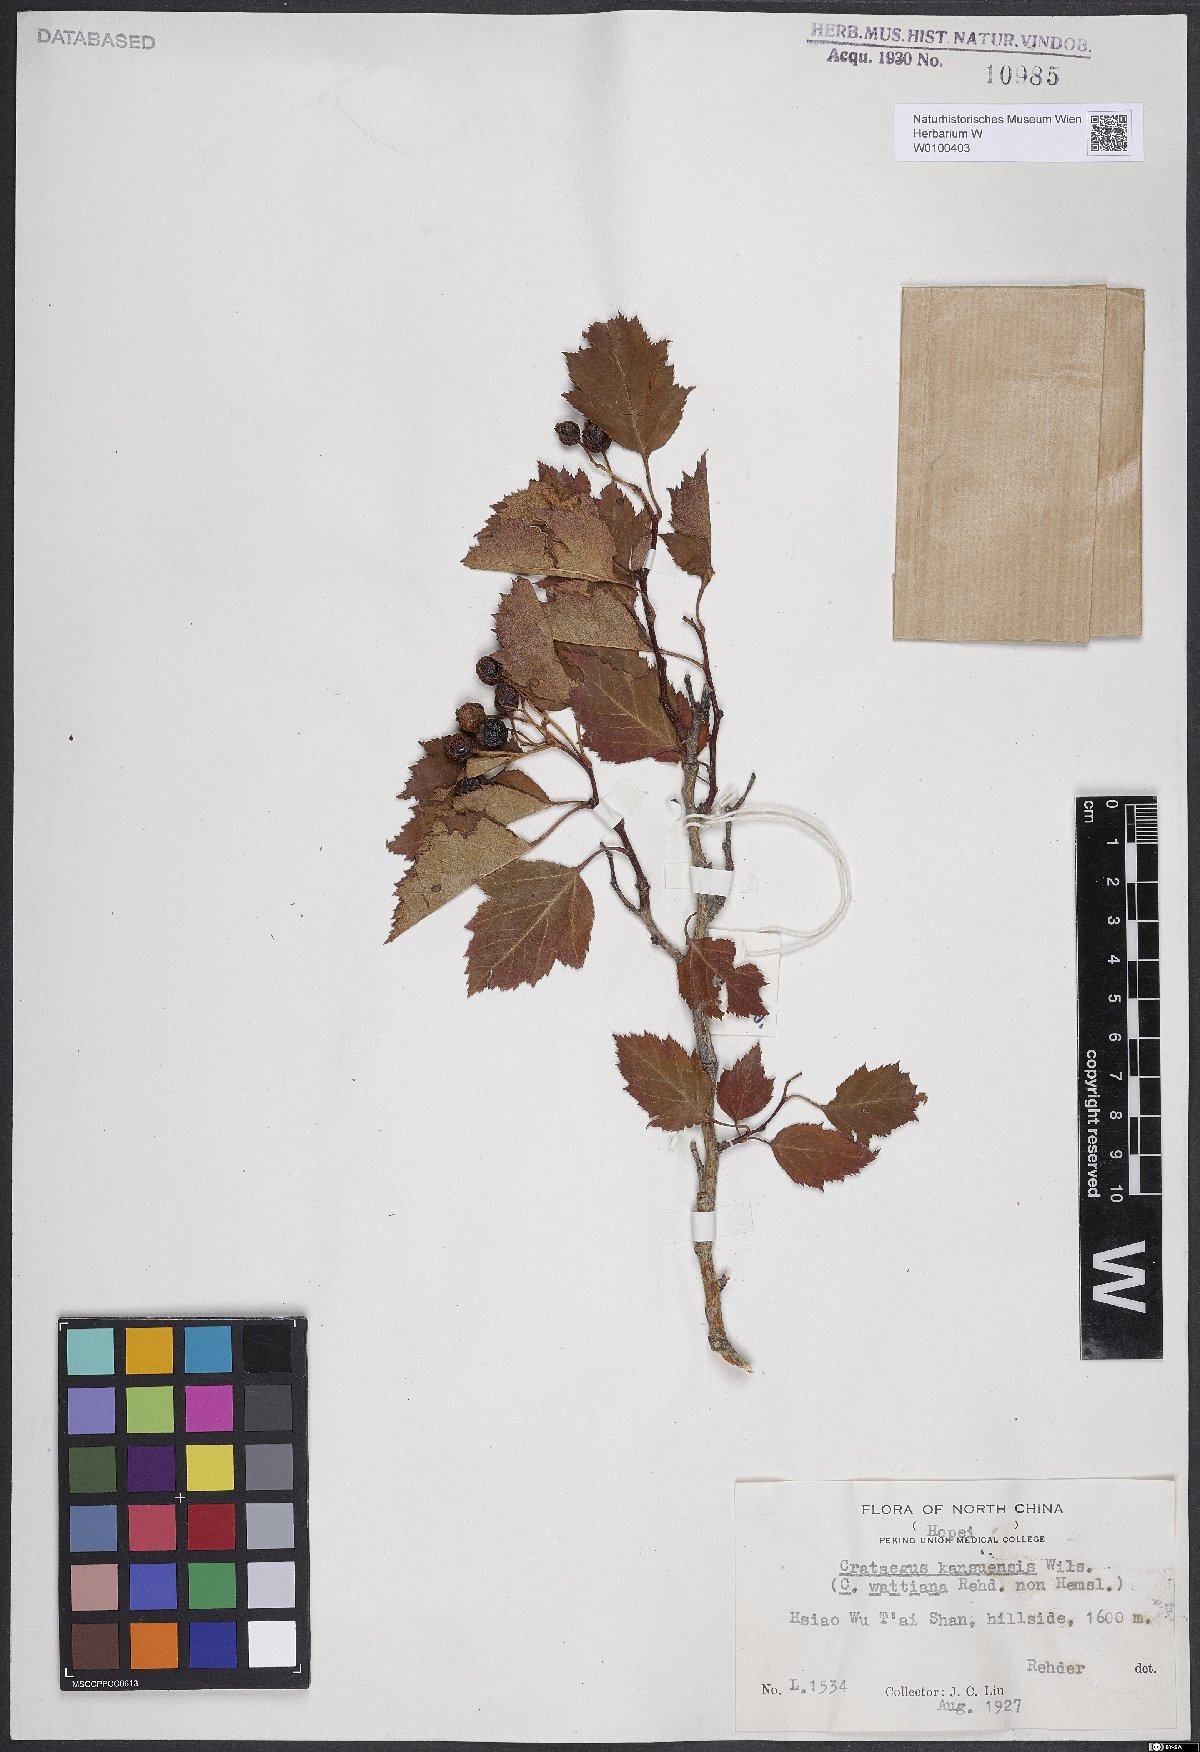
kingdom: Plantae
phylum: Tracheophyta
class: Magnoliopsida
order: Rosales
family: Rosaceae
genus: Crataegus
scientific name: Crataegus kansuensis
